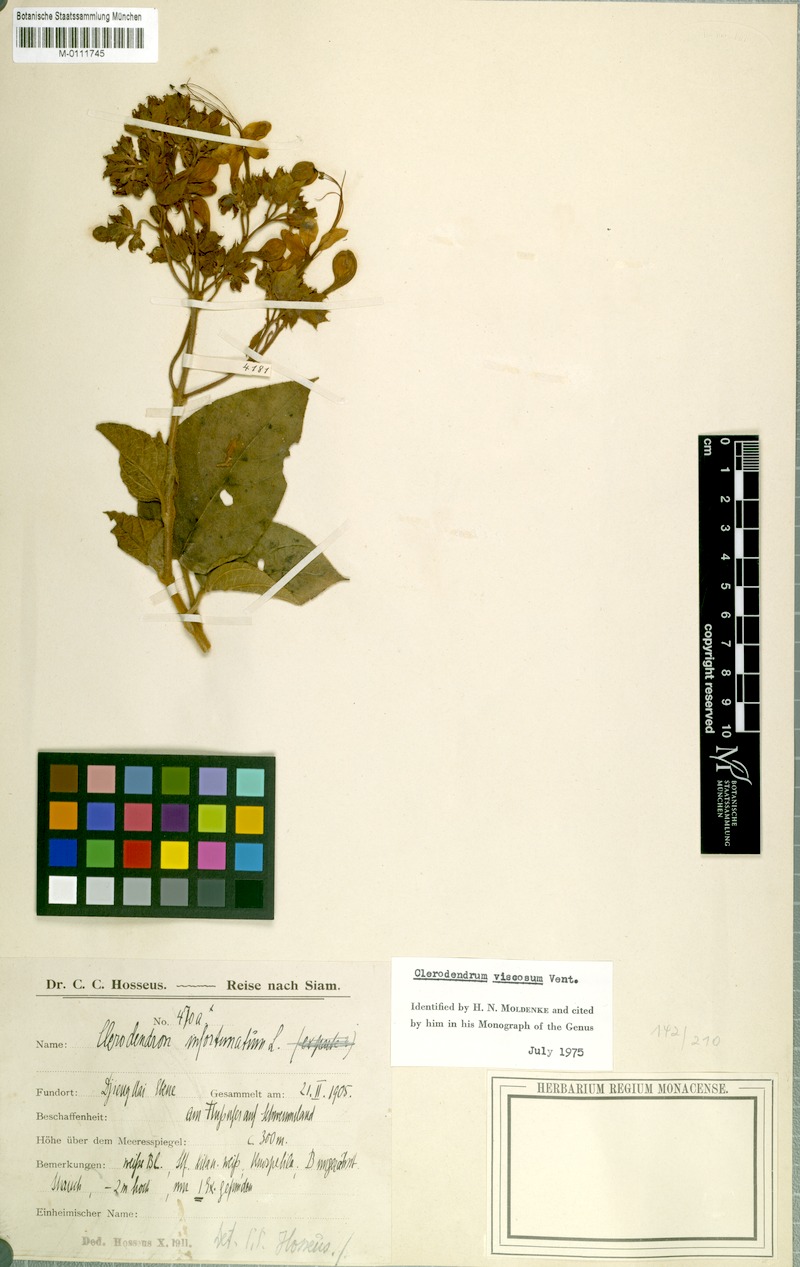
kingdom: Plantae
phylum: Tracheophyta
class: Magnoliopsida
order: Lamiales
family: Lamiaceae
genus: Clerodendrum
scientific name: Clerodendrum infortunatum
